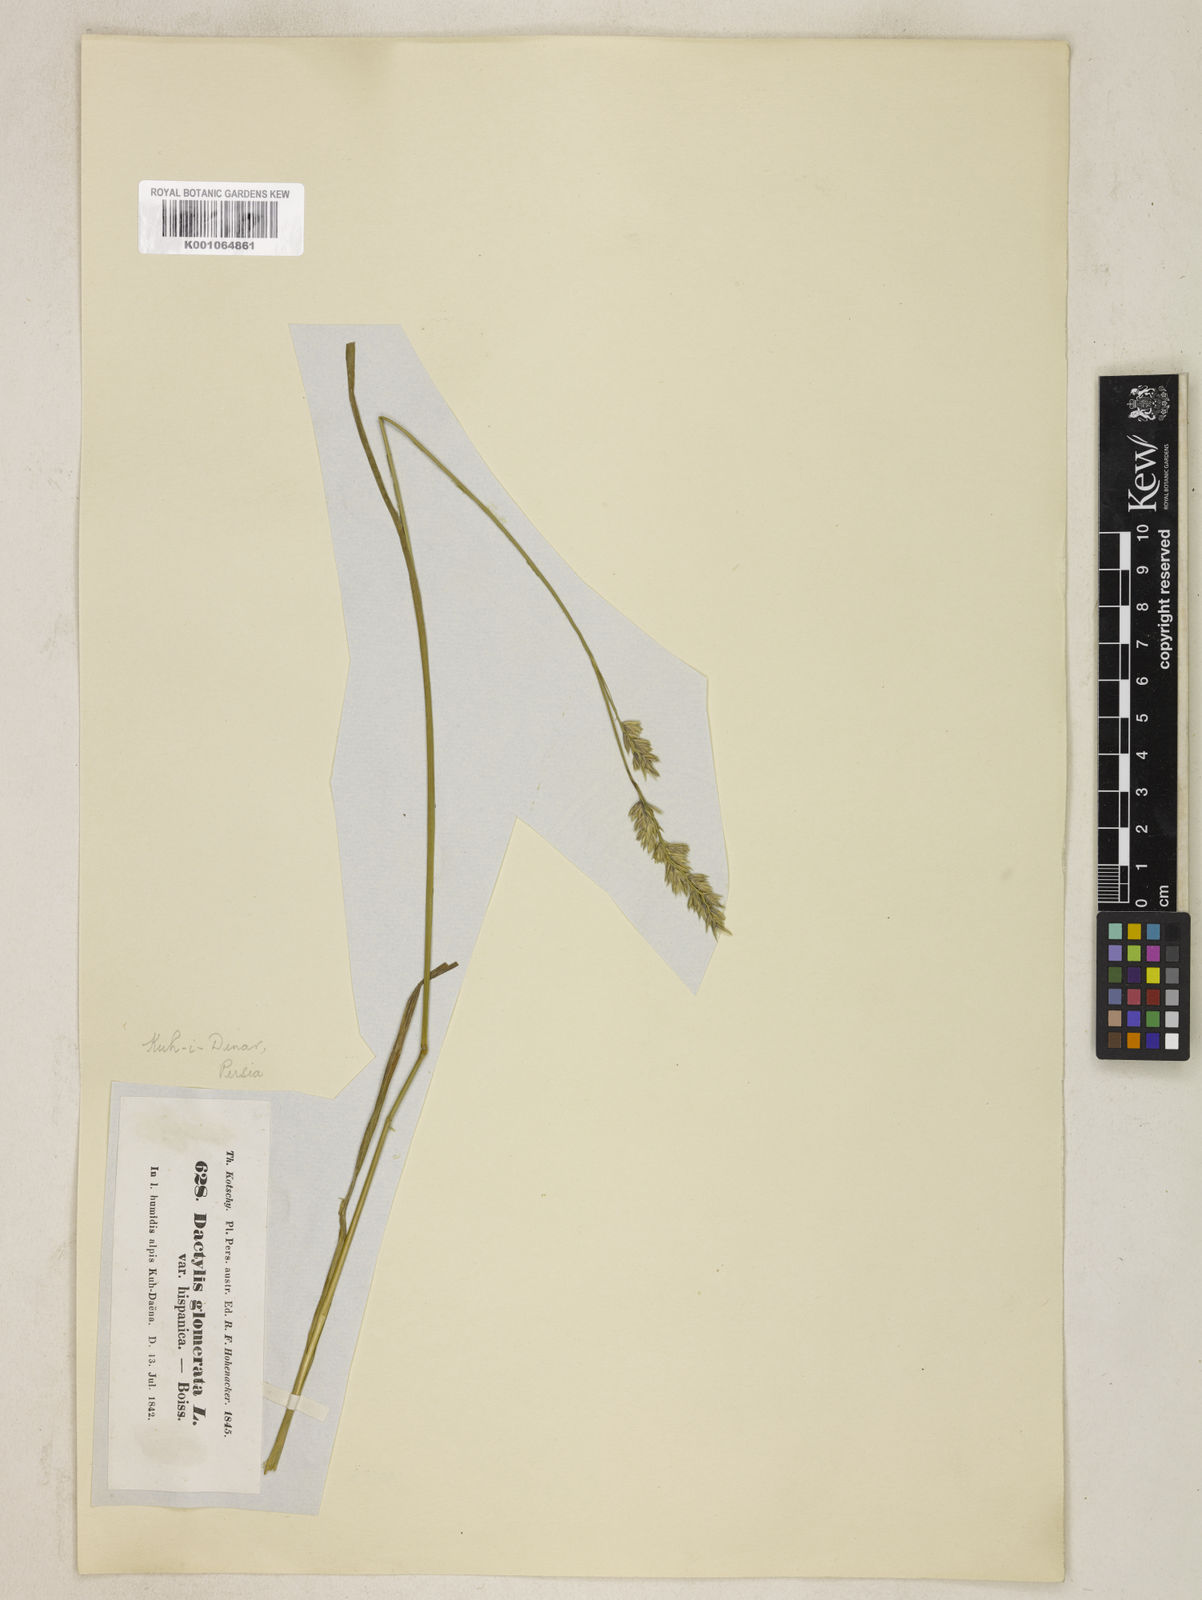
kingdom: Plantae
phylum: Tracheophyta
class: Liliopsida
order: Poales
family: Poaceae
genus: Dactylis
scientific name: Dactylis glomerata
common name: Orchardgrass
